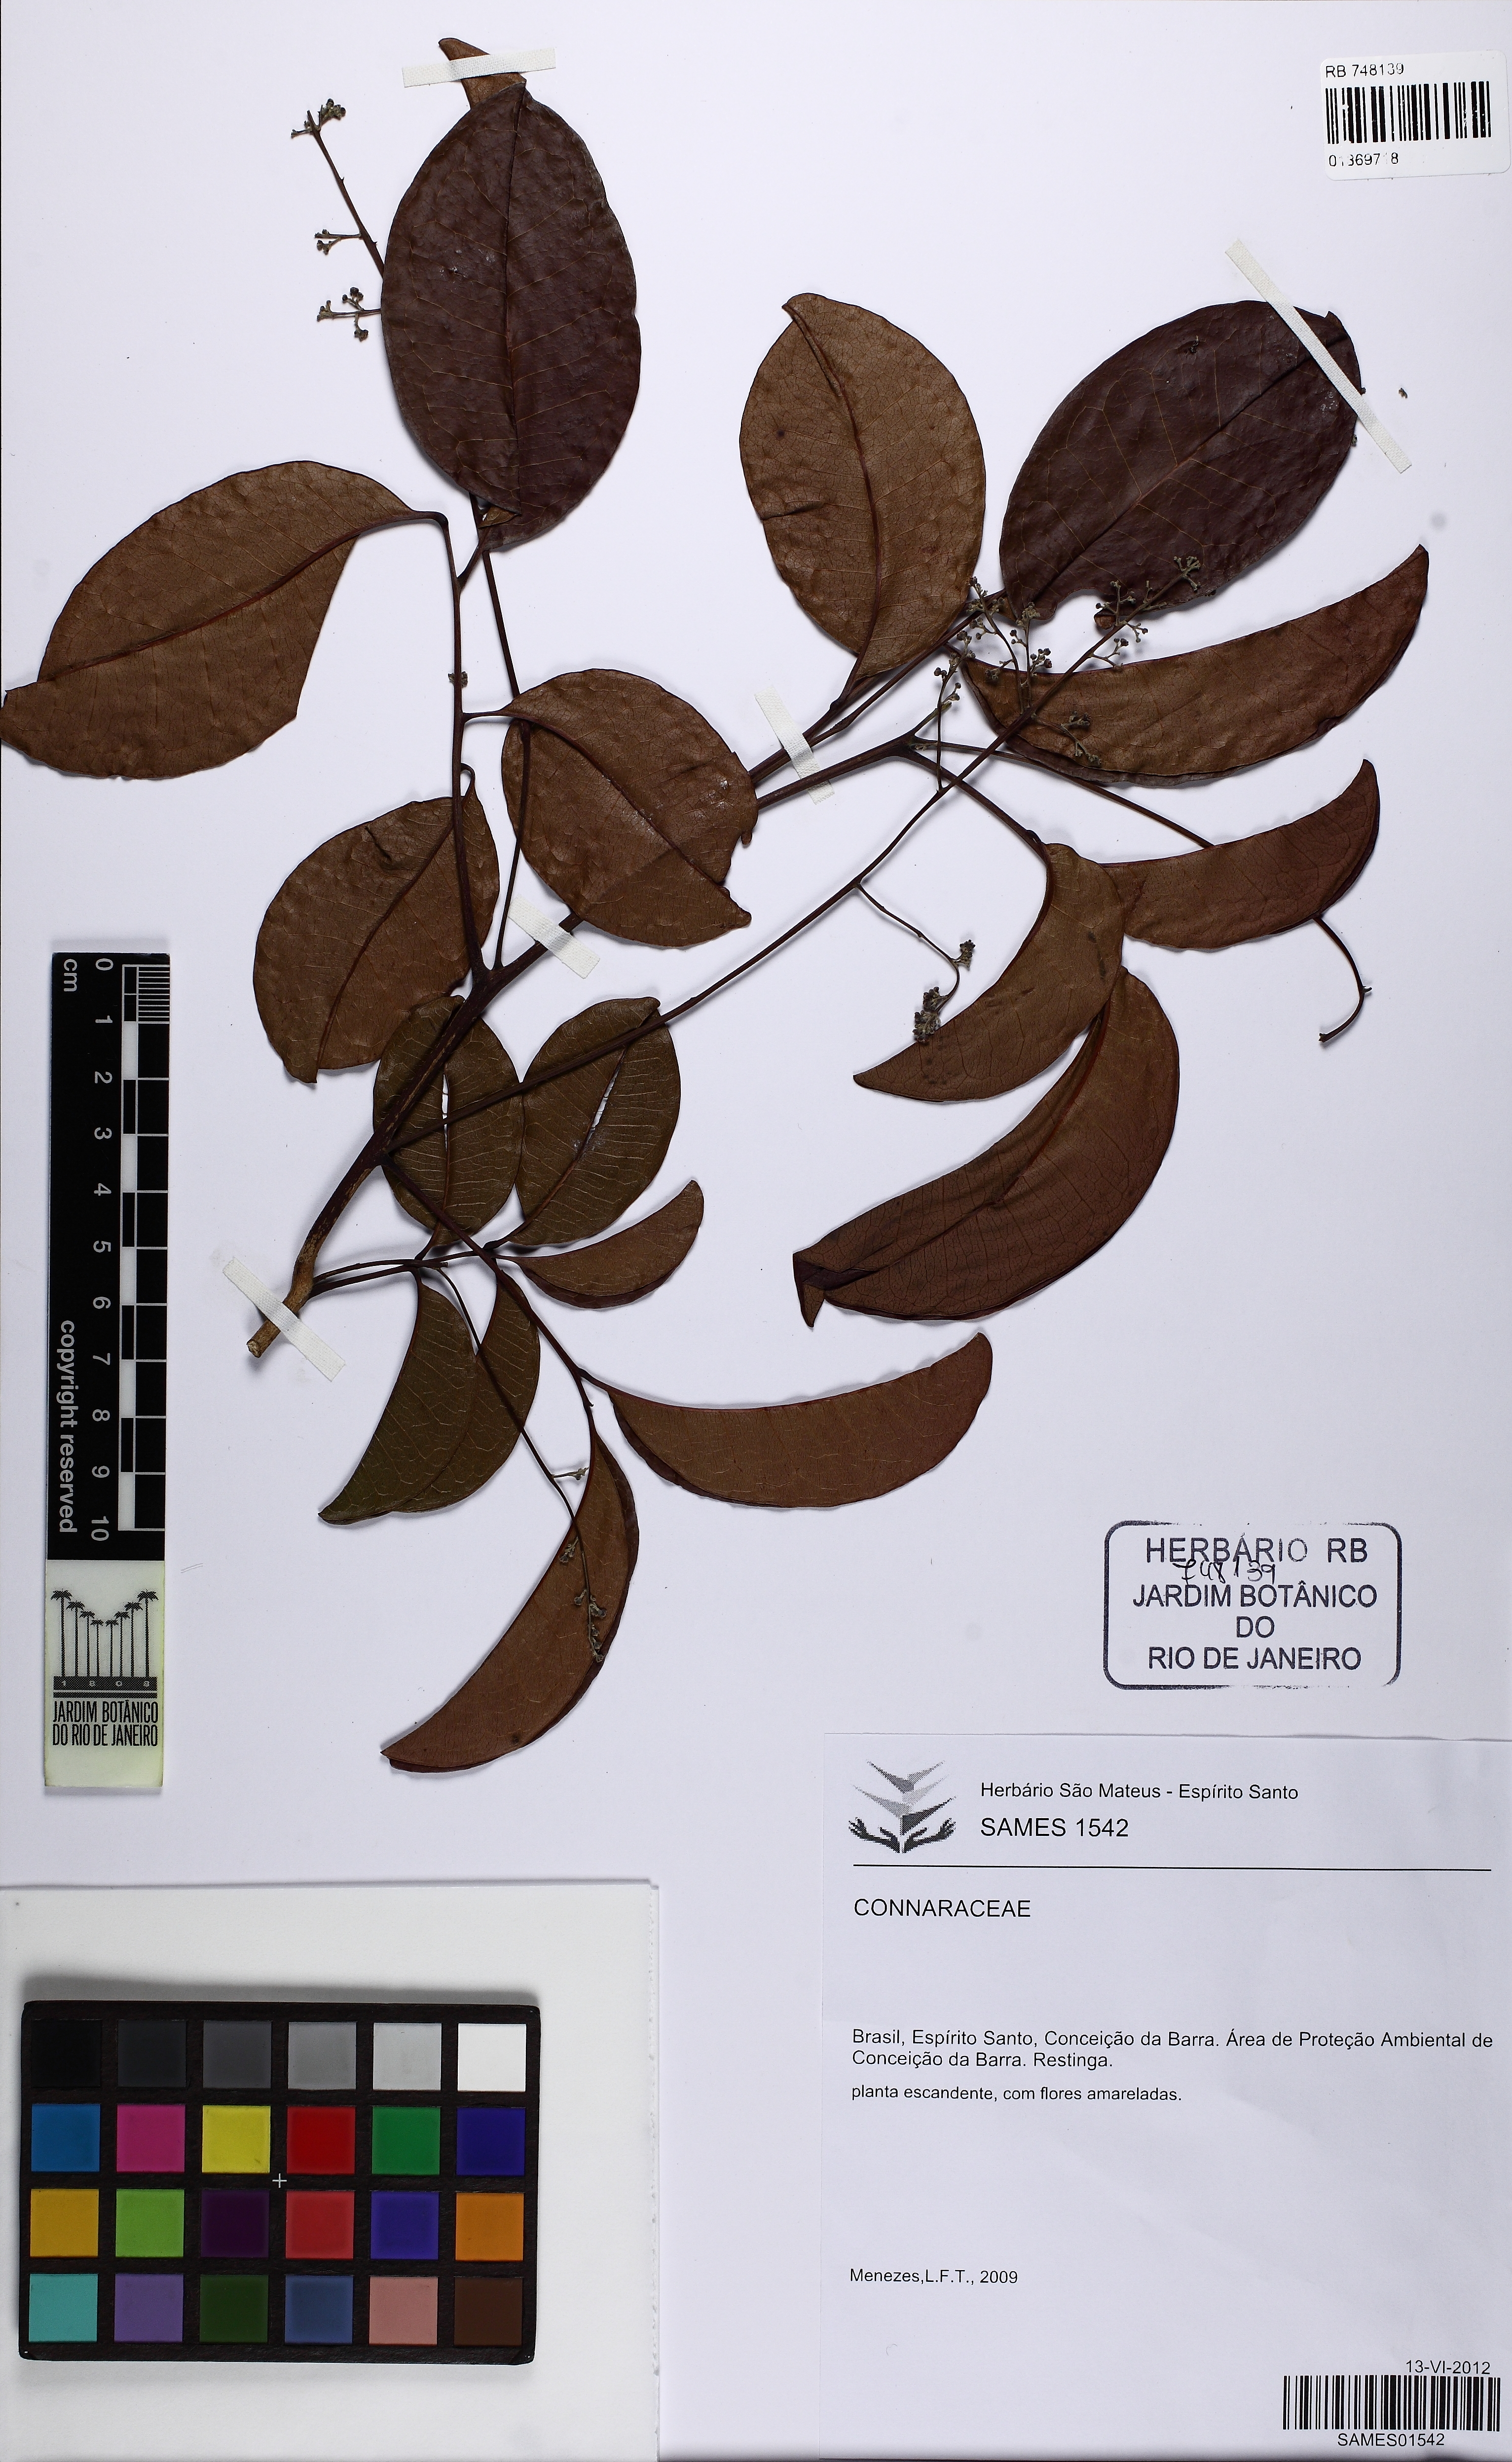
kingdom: Plantae
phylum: Tracheophyta
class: Magnoliopsida
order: Oxalidales
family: Connaraceae
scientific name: Connaraceae
